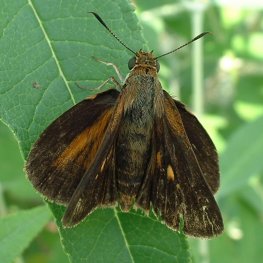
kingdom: Animalia
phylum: Arthropoda
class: Insecta
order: Lepidoptera
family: Hesperiidae
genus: Euphyes
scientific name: Euphyes dukesi
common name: Dukes' Skipper
